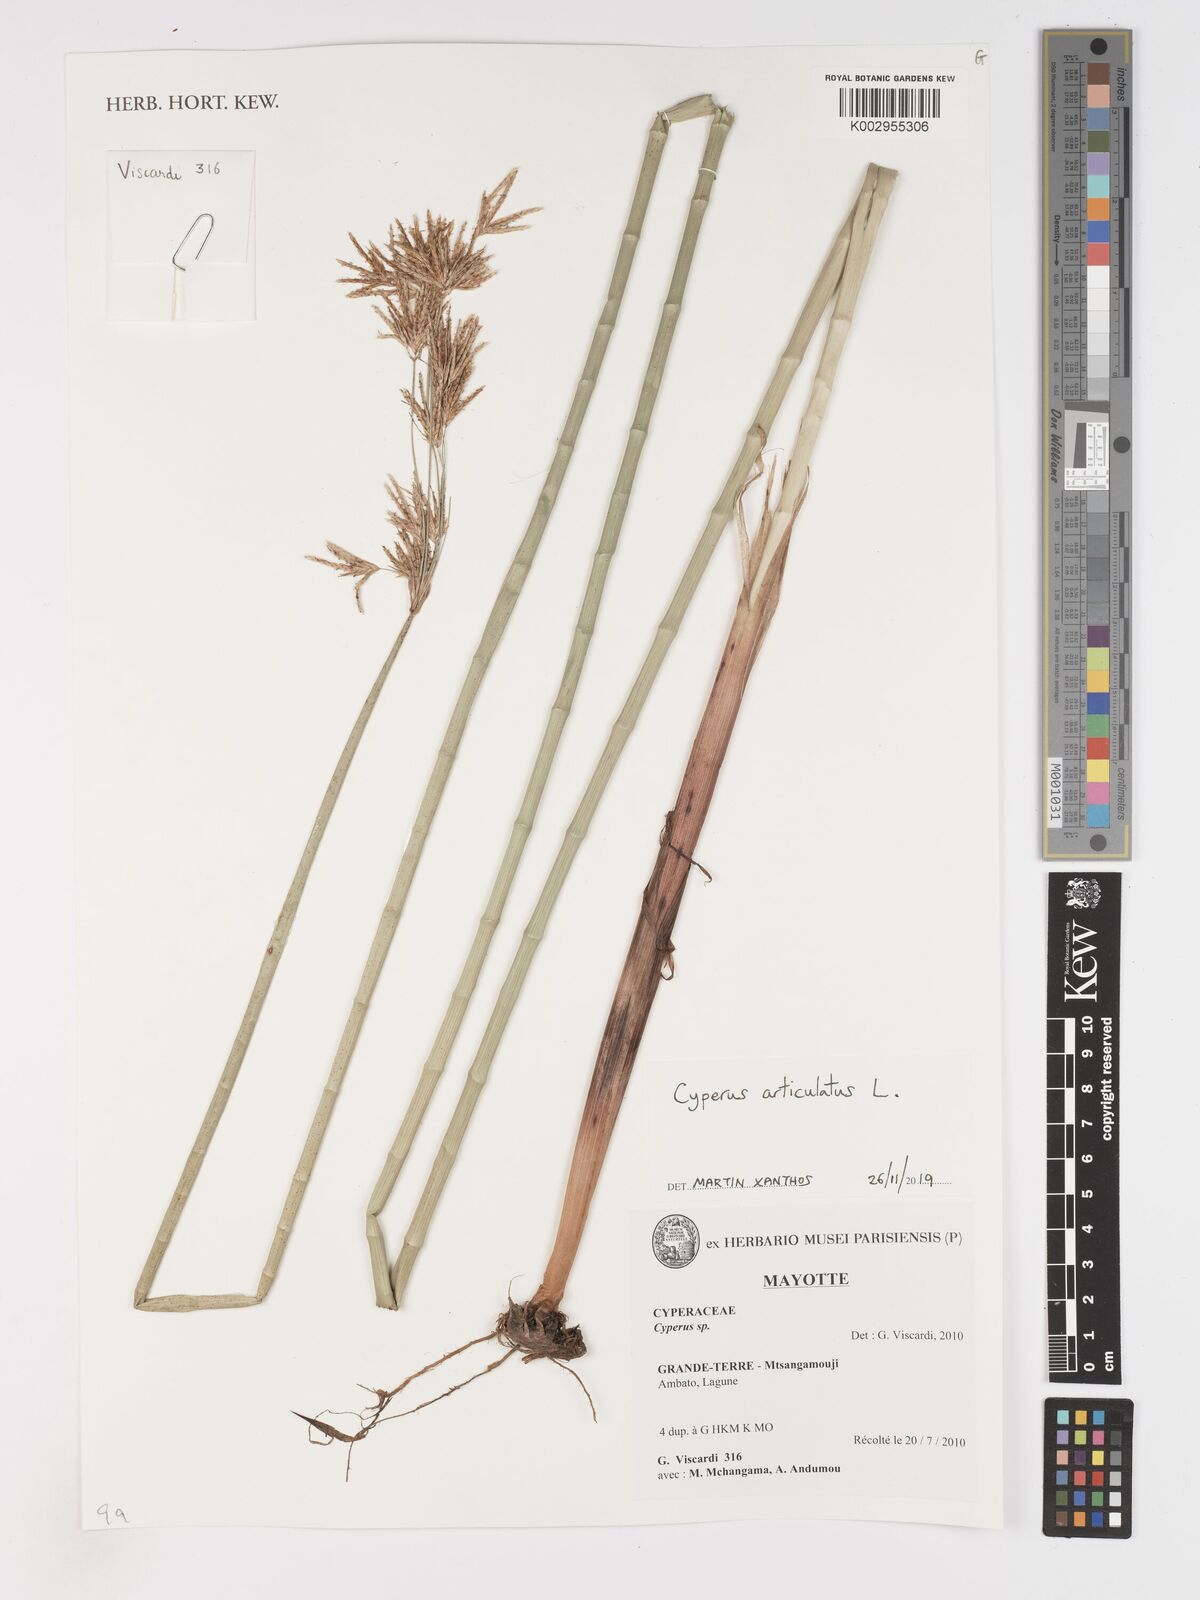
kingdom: Plantae
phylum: Tracheophyta
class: Liliopsida
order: Poales
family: Cyperaceae
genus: Cyperus
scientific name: Cyperus articulatus
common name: Jointed flatsedge
